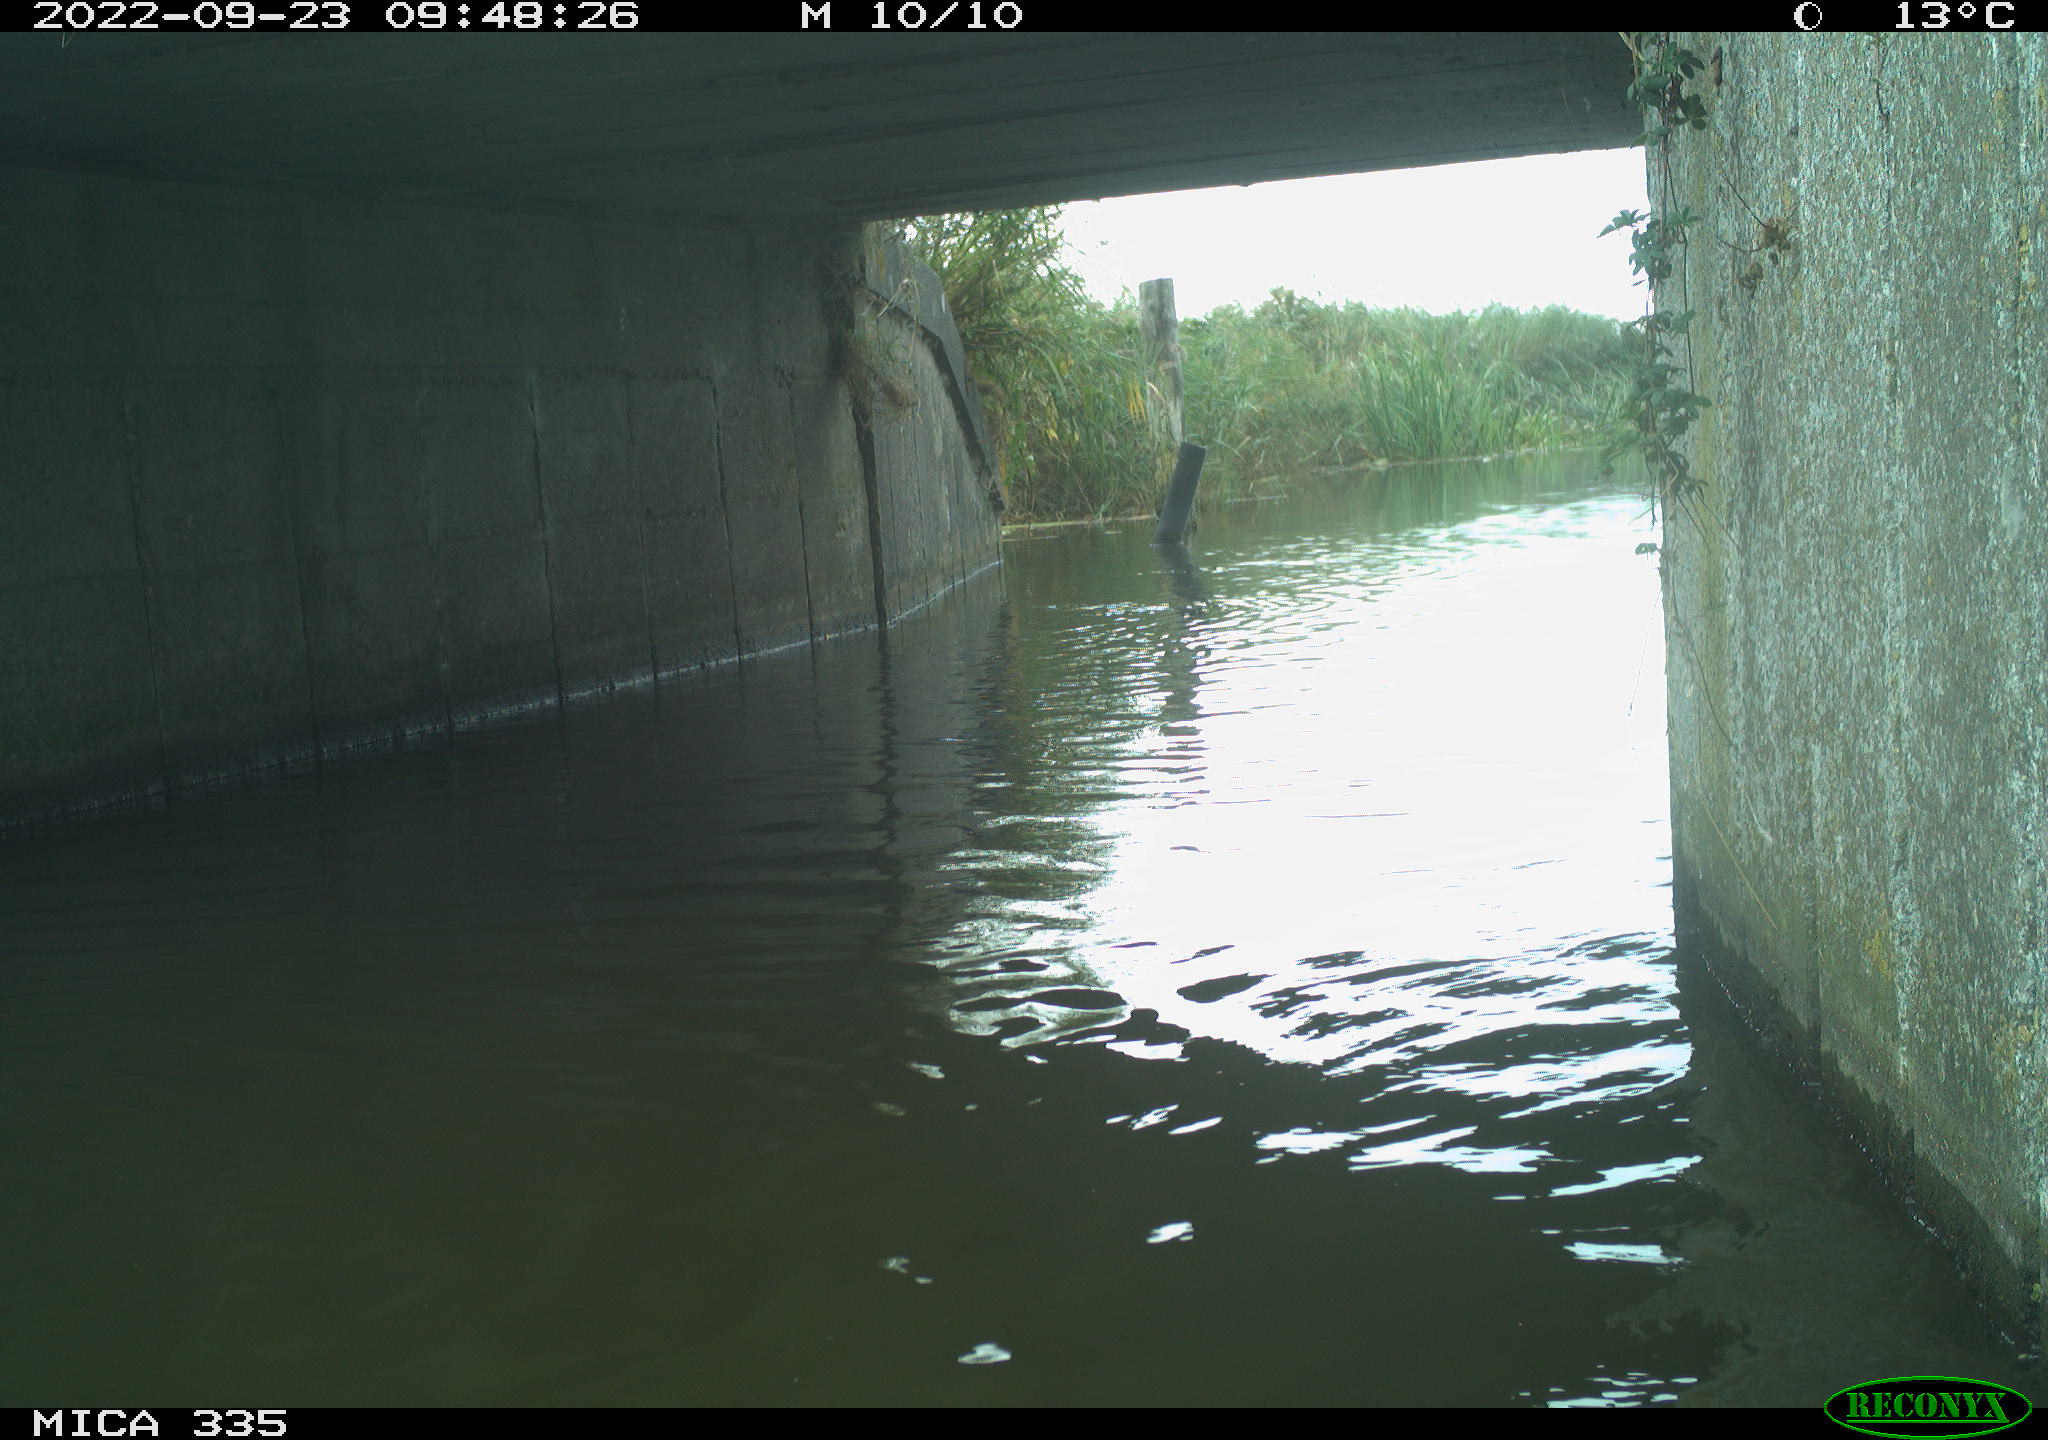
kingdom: Animalia
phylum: Chordata
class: Aves
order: Podicipediformes
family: Podicipedidae
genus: Podiceps
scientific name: Podiceps cristatus
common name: Great crested grebe
